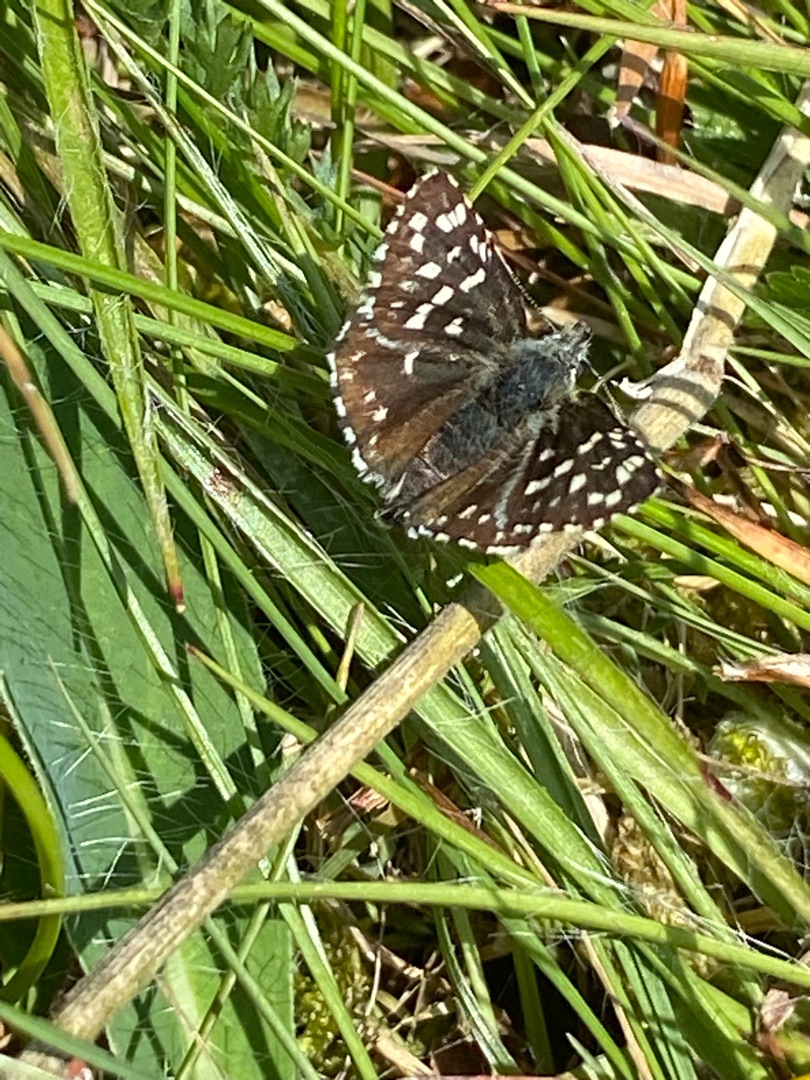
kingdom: Animalia
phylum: Arthropoda
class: Insecta
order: Lepidoptera
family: Hesperiidae
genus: Pyrgus
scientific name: Pyrgus malvae
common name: Spættet bredpande
